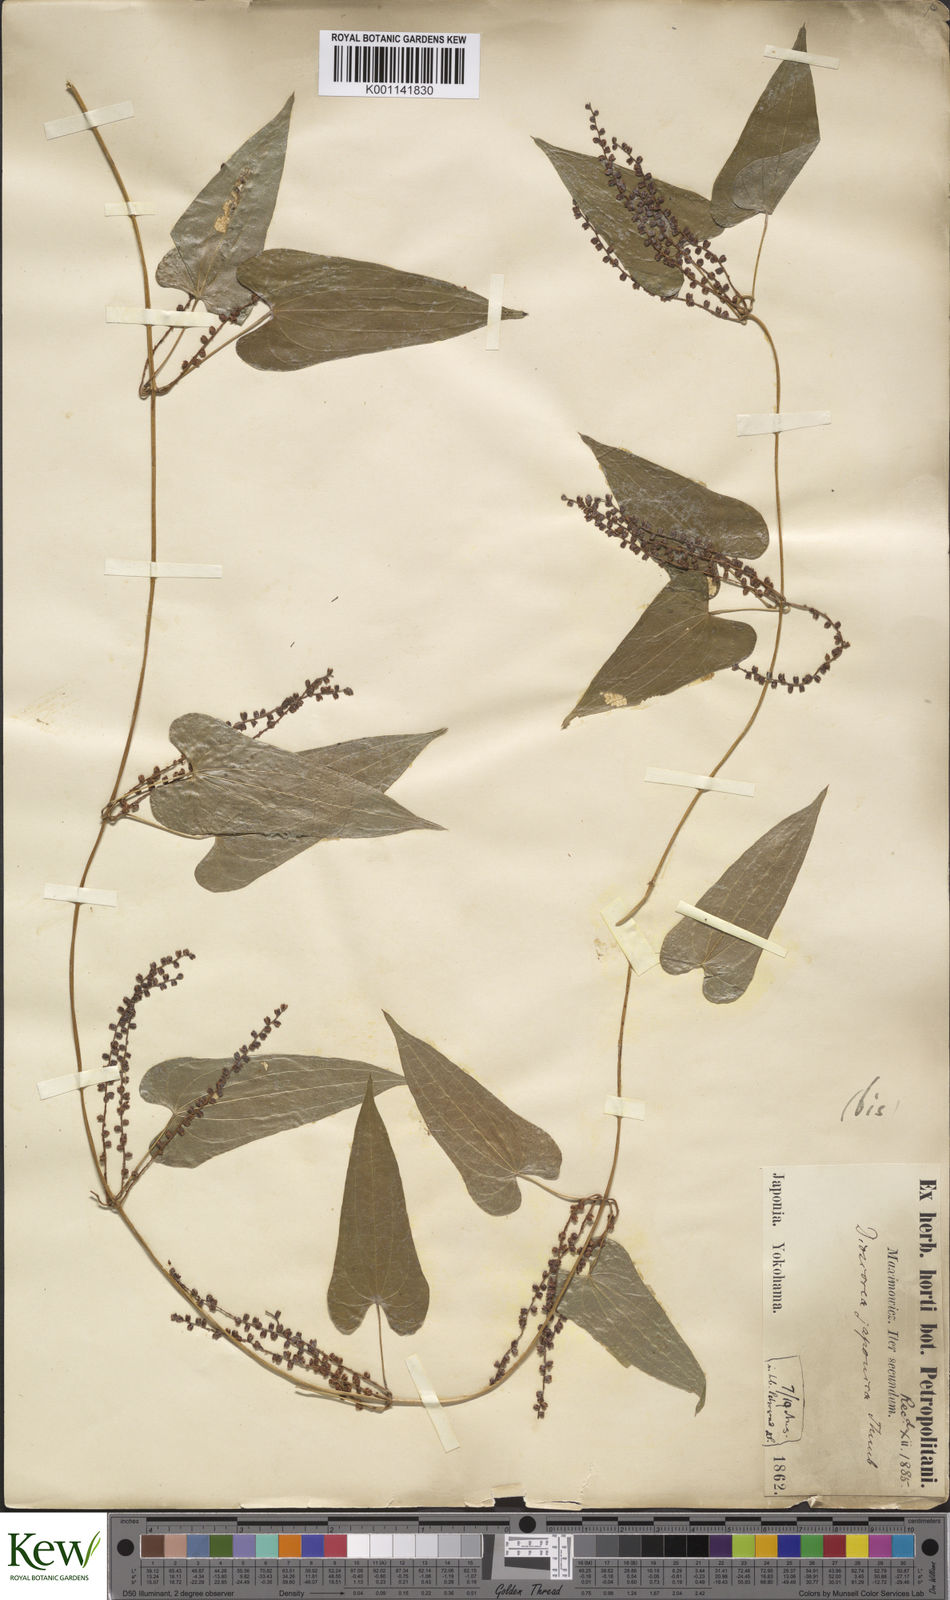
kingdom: Plantae
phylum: Tracheophyta
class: Liliopsida
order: Dioscoreales
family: Dioscoreaceae
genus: Dioscorea
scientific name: Dioscorea japonica
